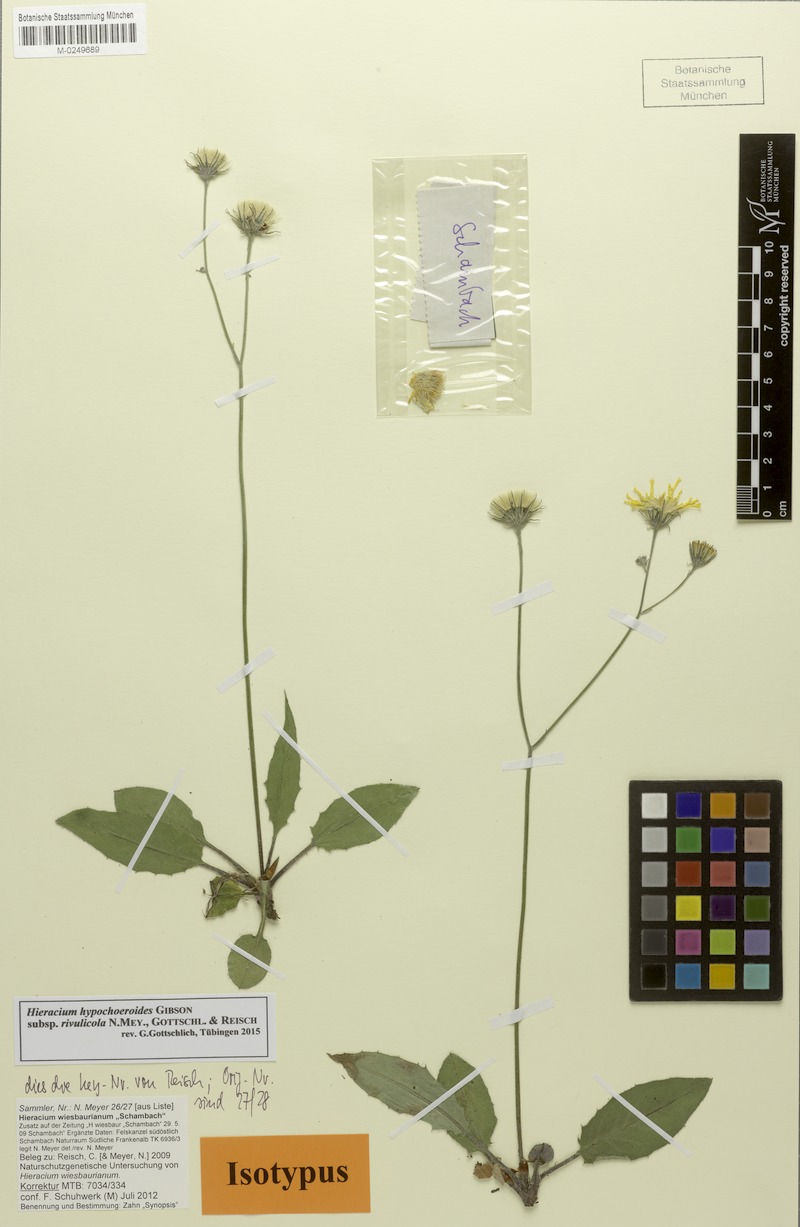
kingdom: Plantae
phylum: Tracheophyta
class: Magnoliopsida
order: Asterales
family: Asteraceae
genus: Hieracium
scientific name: Hieracium hypochoeroides
